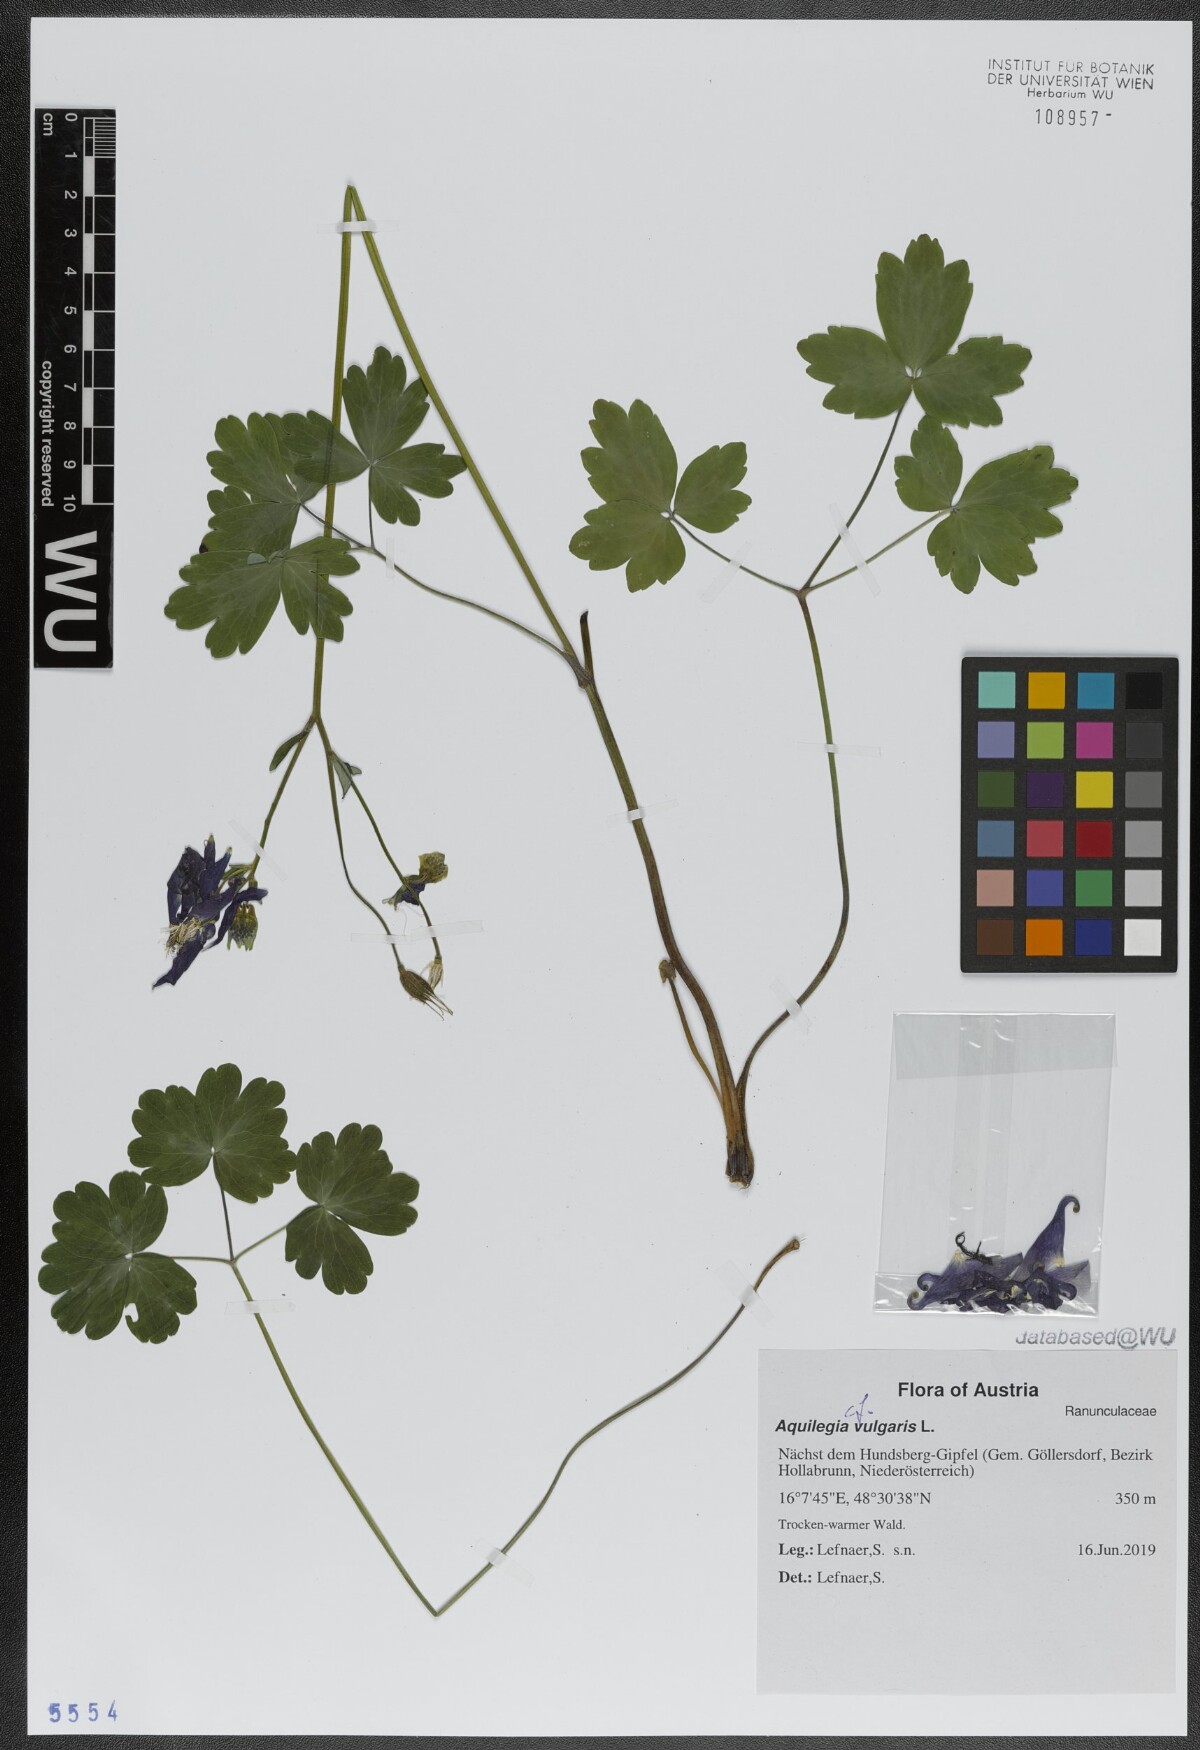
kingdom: Plantae
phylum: Tracheophyta
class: Magnoliopsida
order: Ranunculales
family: Ranunculaceae
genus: Aquilegia
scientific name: Aquilegia vulgaris
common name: Columbine
